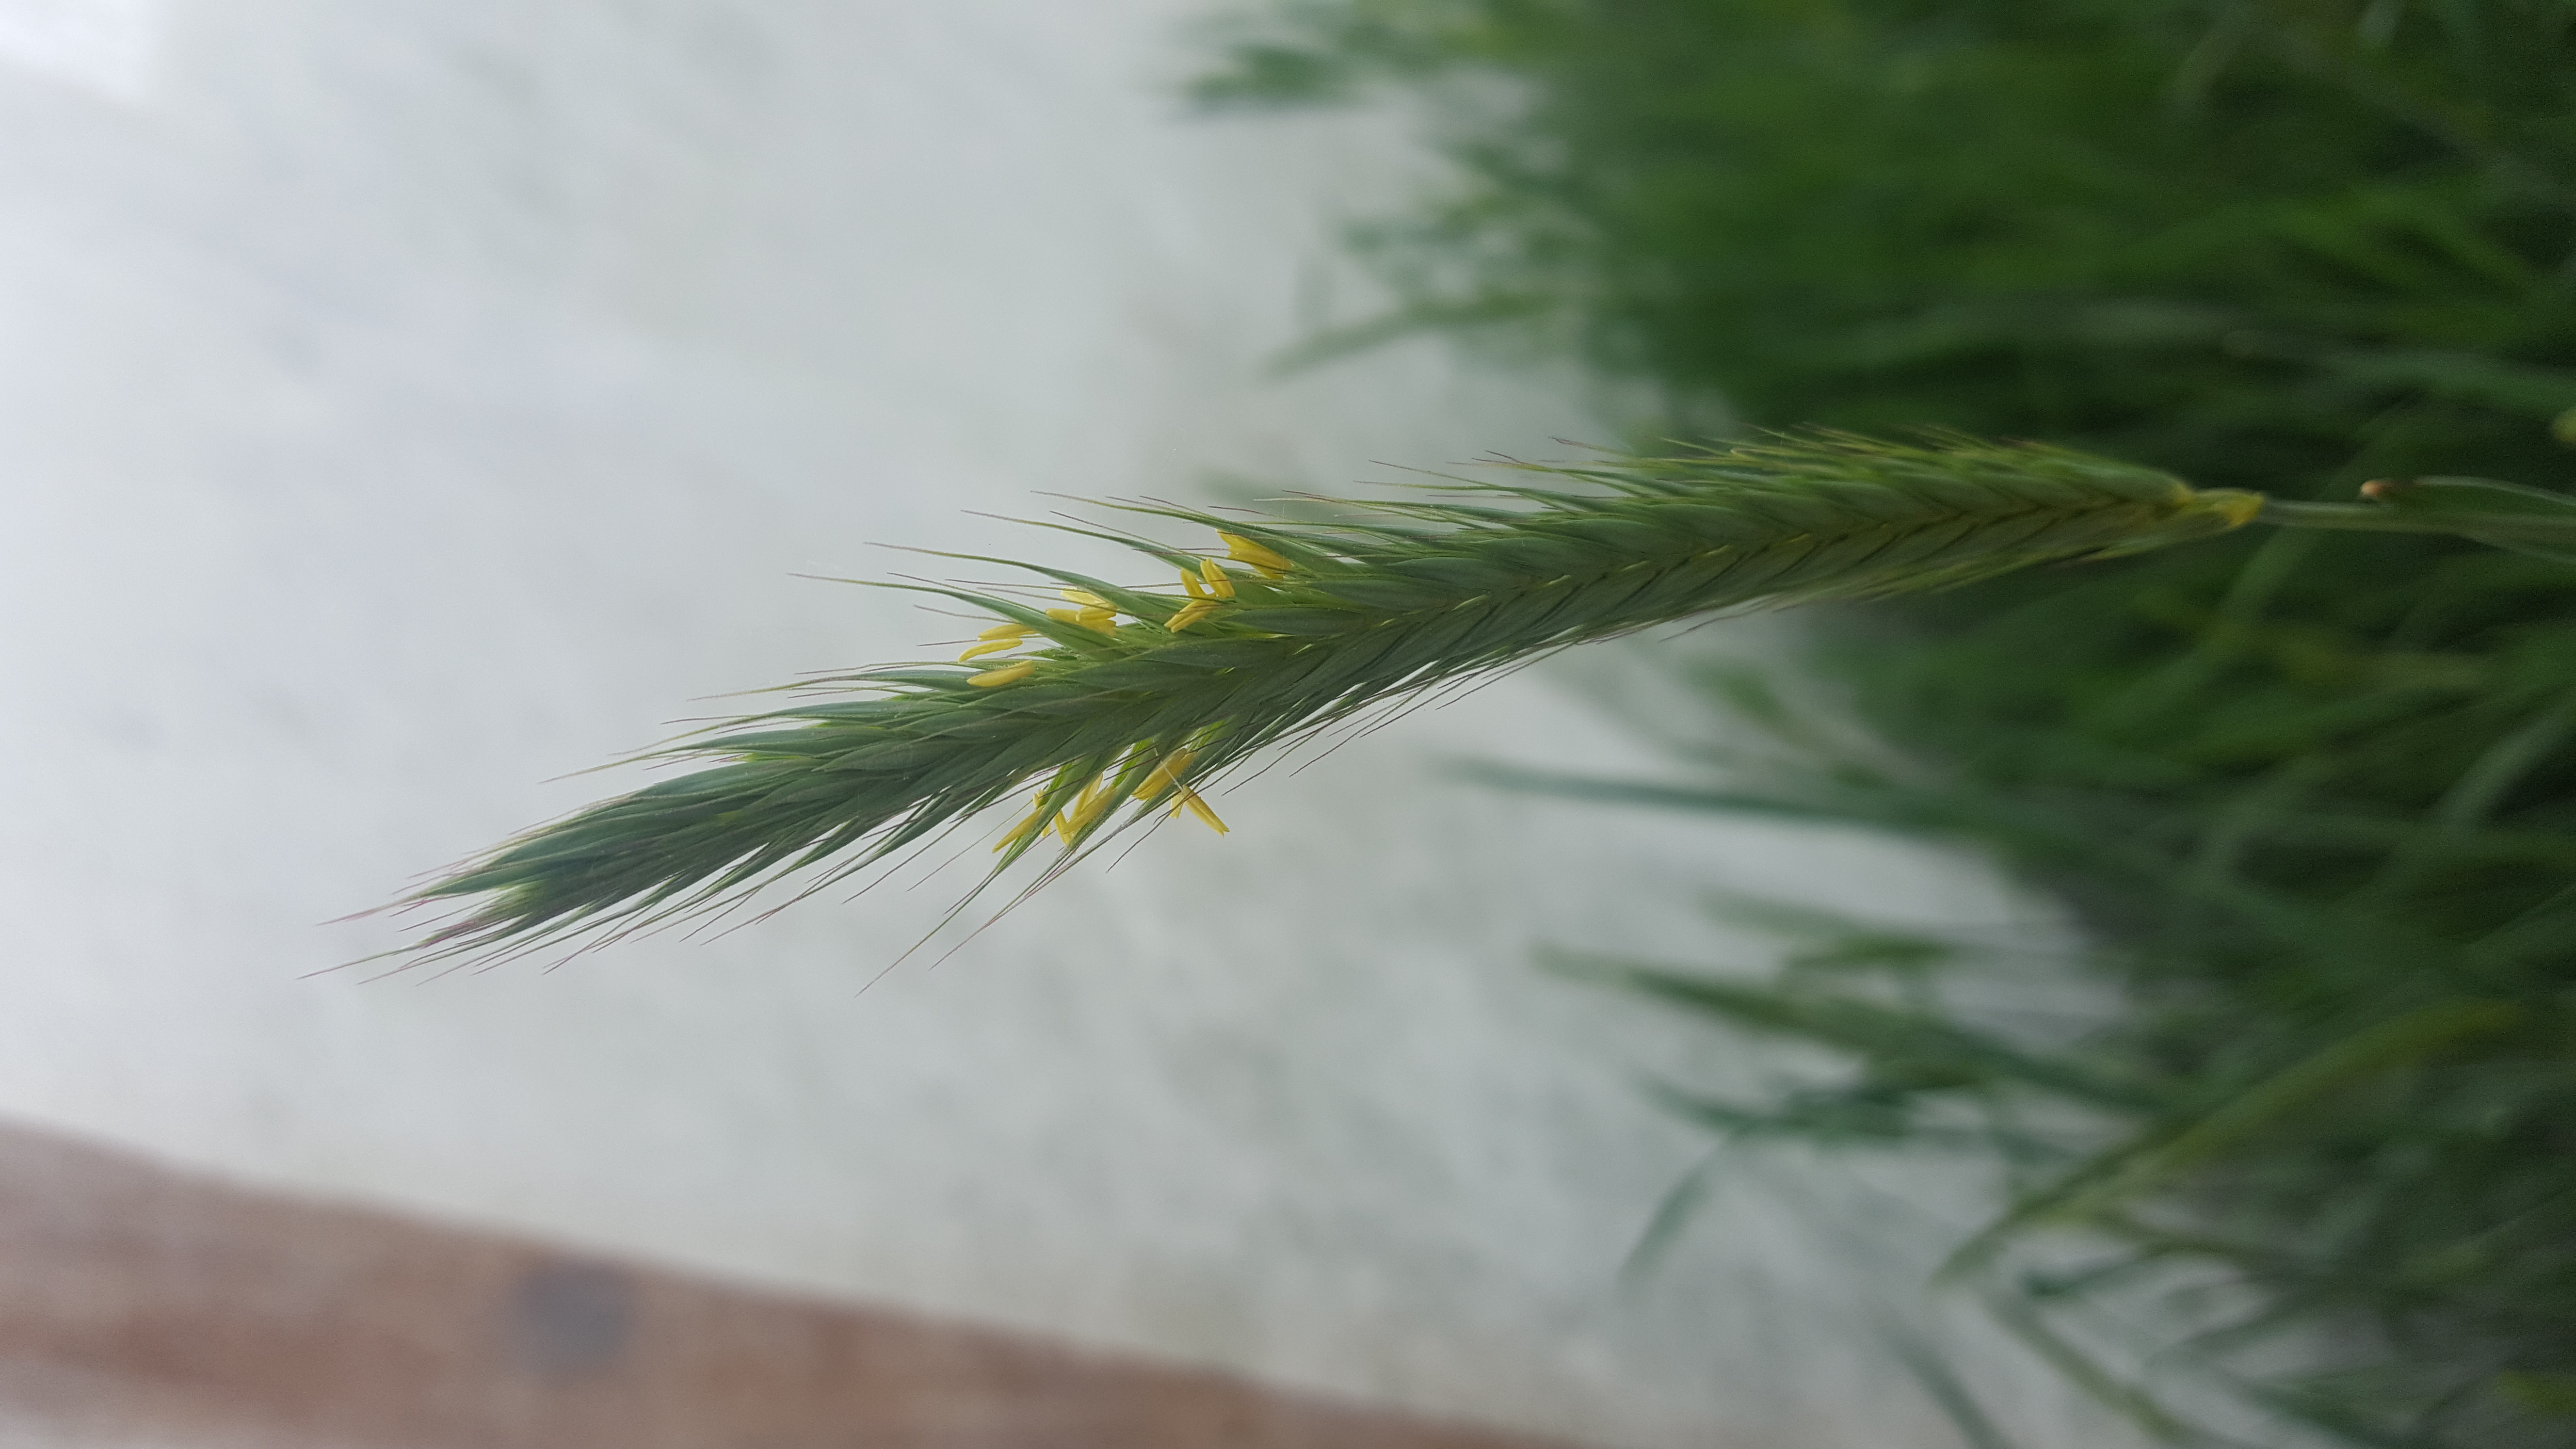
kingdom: Plantae
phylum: Tracheophyta
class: Liliopsida
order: Poales
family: Poaceae
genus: Hordeum
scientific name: Hordeum parodii
